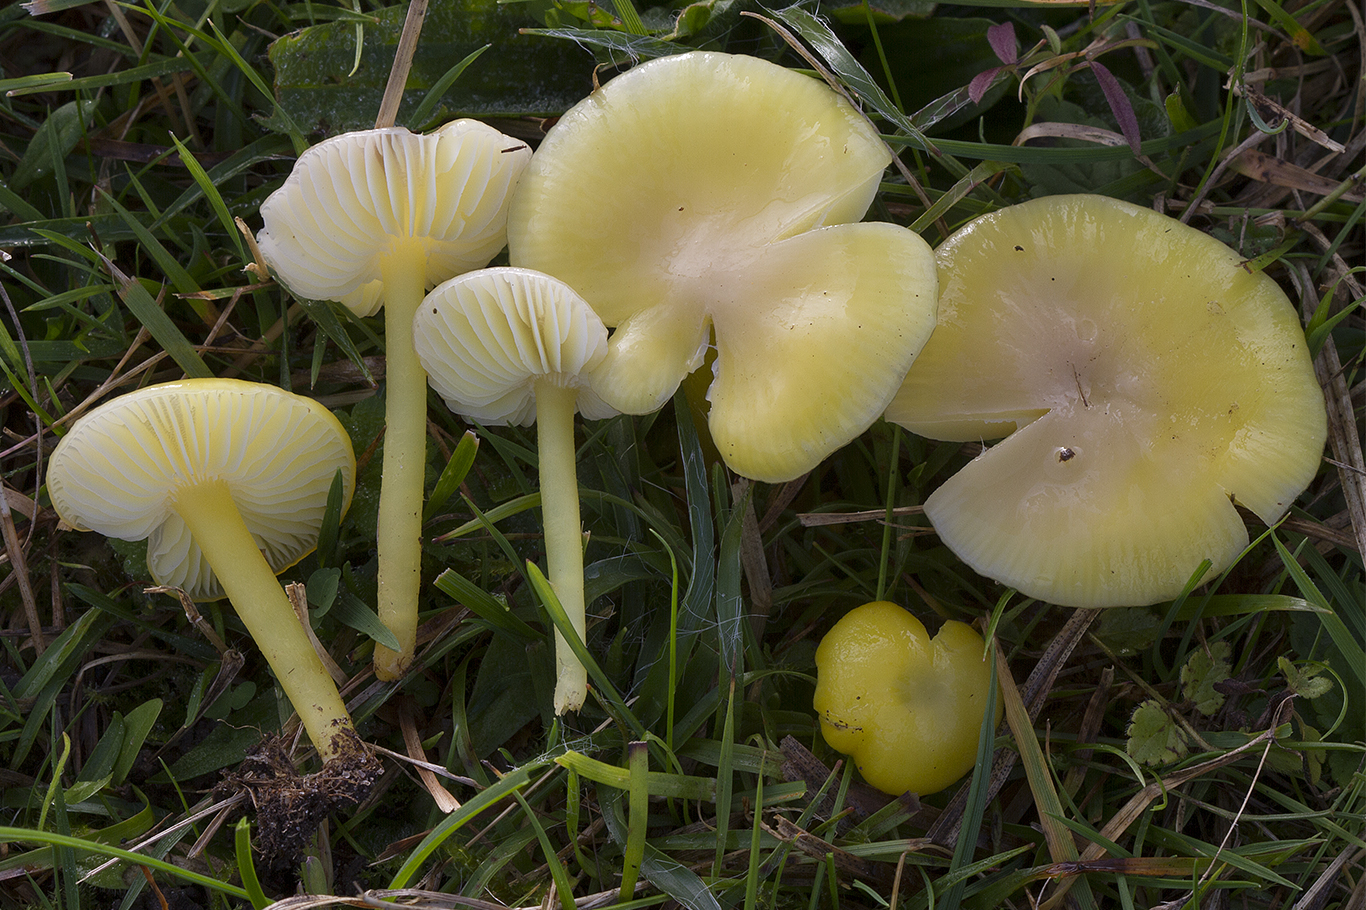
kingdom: Fungi
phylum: Basidiomycota
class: Agaricomycetes
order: Agaricales
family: Hygrophoraceae
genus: Hygrocybe
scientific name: Hygrocybe chlorophana
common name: gul vokshat
